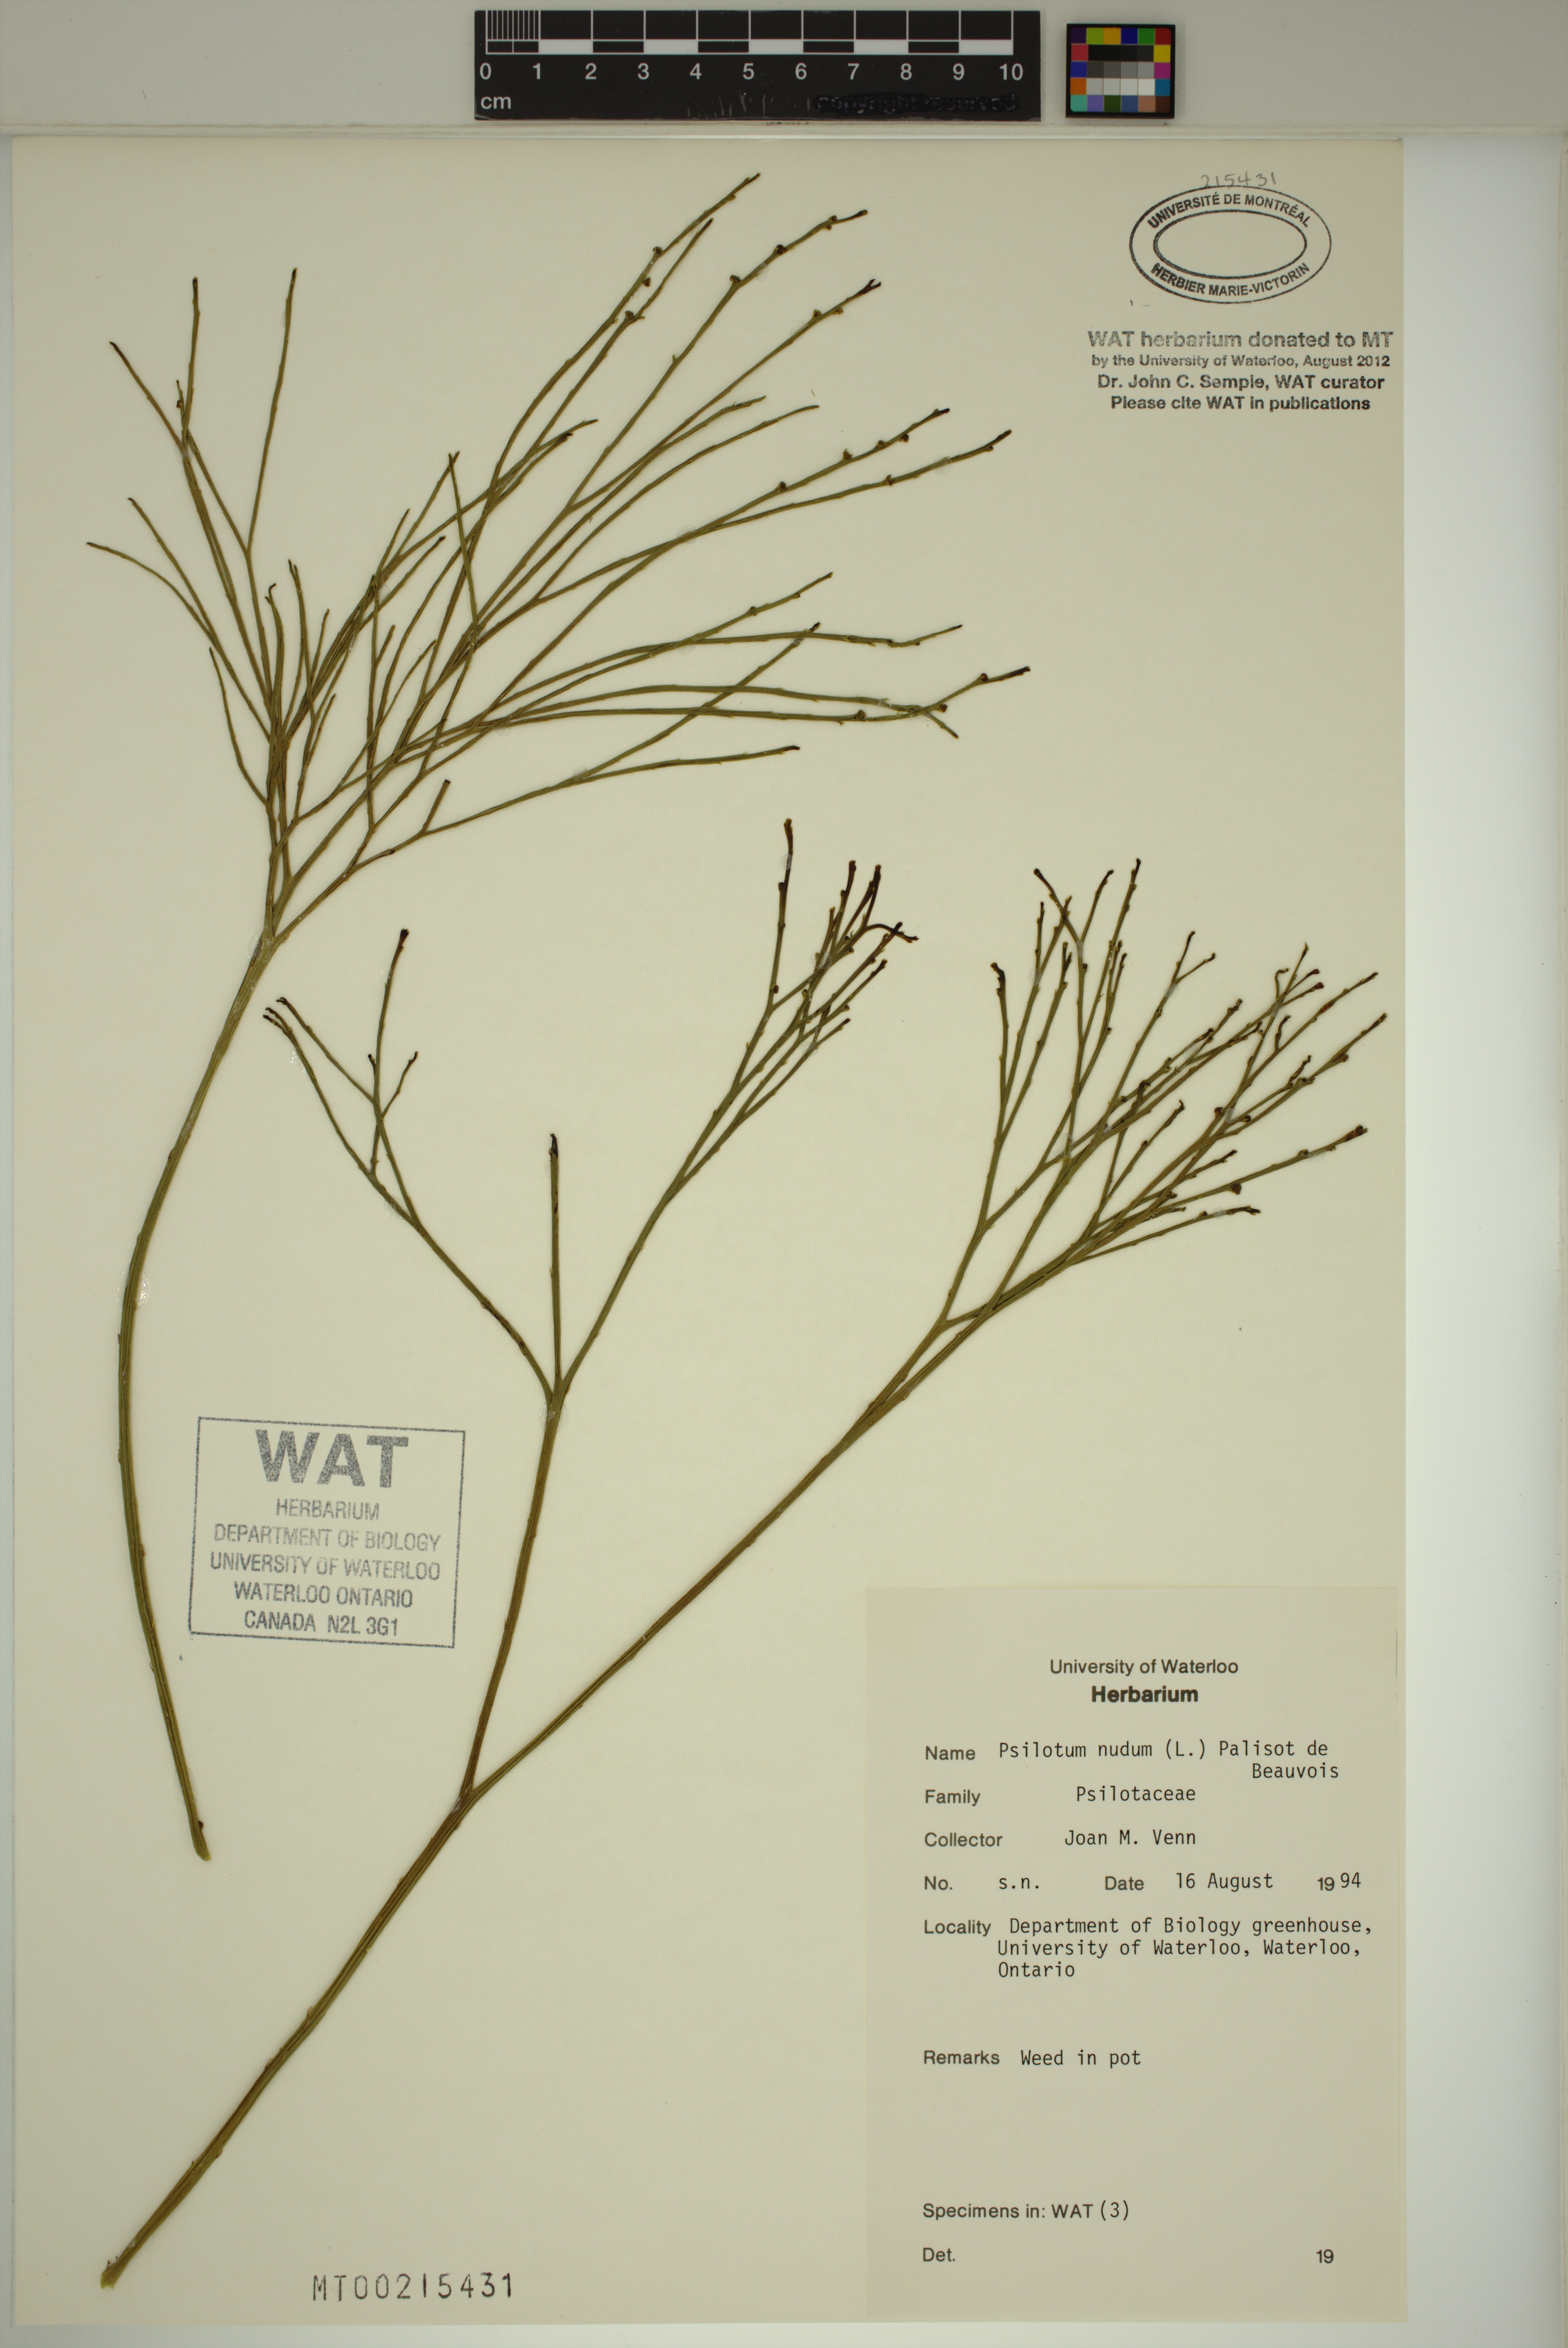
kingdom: Plantae
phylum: Tracheophyta
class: Polypodiopsida
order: Psilotales
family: Psilotaceae
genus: Psilotum
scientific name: Psilotum nudum
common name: Skeleton fork fern
